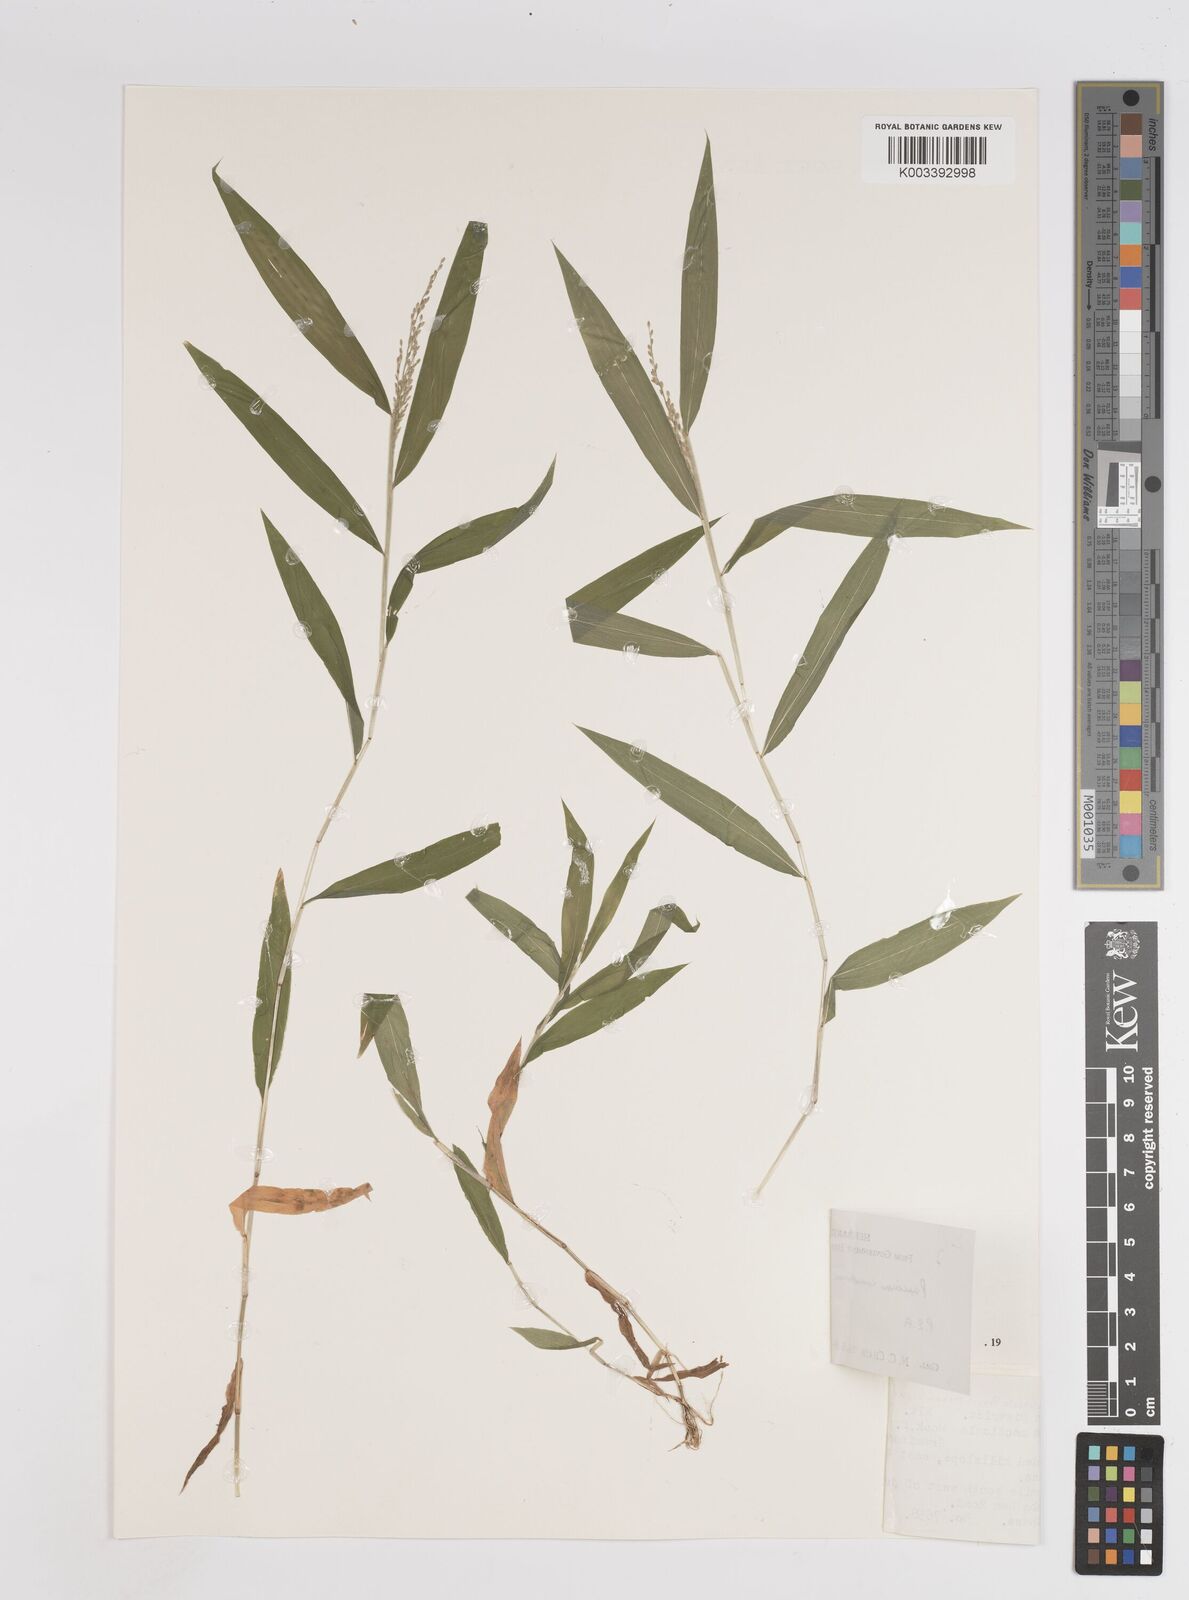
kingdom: Plantae
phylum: Tracheophyta
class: Liliopsida
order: Poales
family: Poaceae
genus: Panicum
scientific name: Panicum comorense
